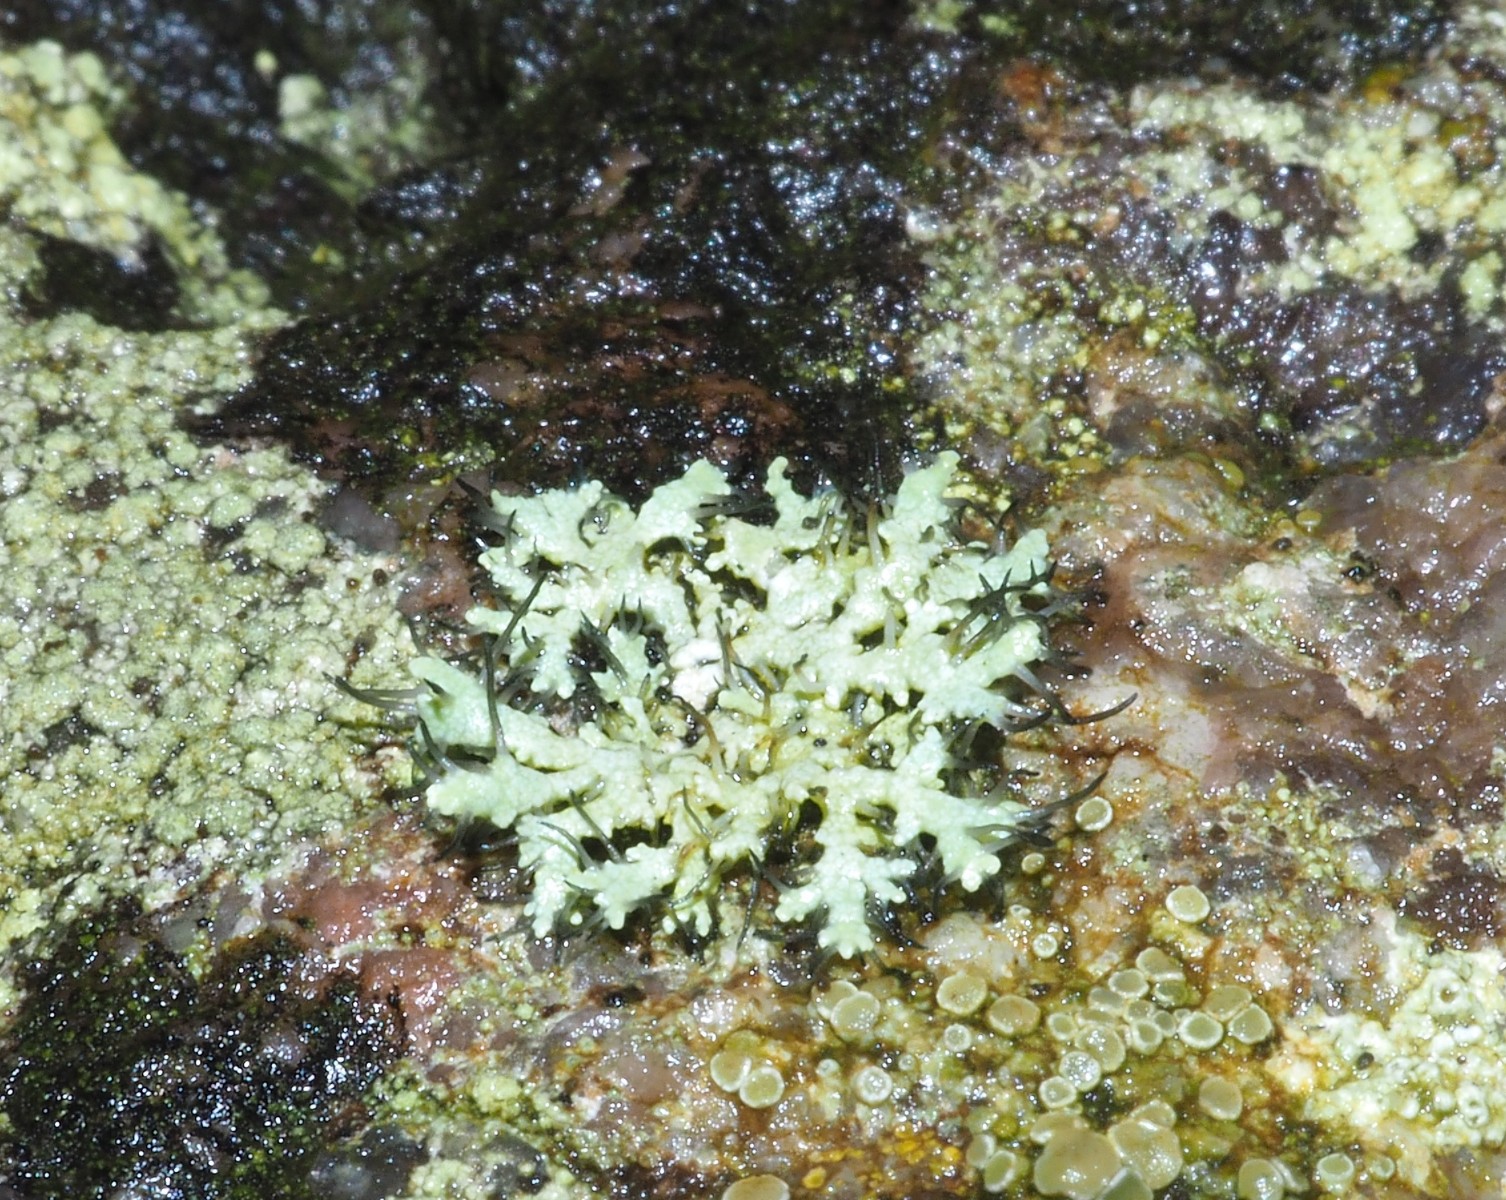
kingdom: Fungi
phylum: Ascomycota
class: Lecanoromycetes
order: Caliciales
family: Physciaceae
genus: Physcia
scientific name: Physcia tenella
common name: spæd rosetlav
